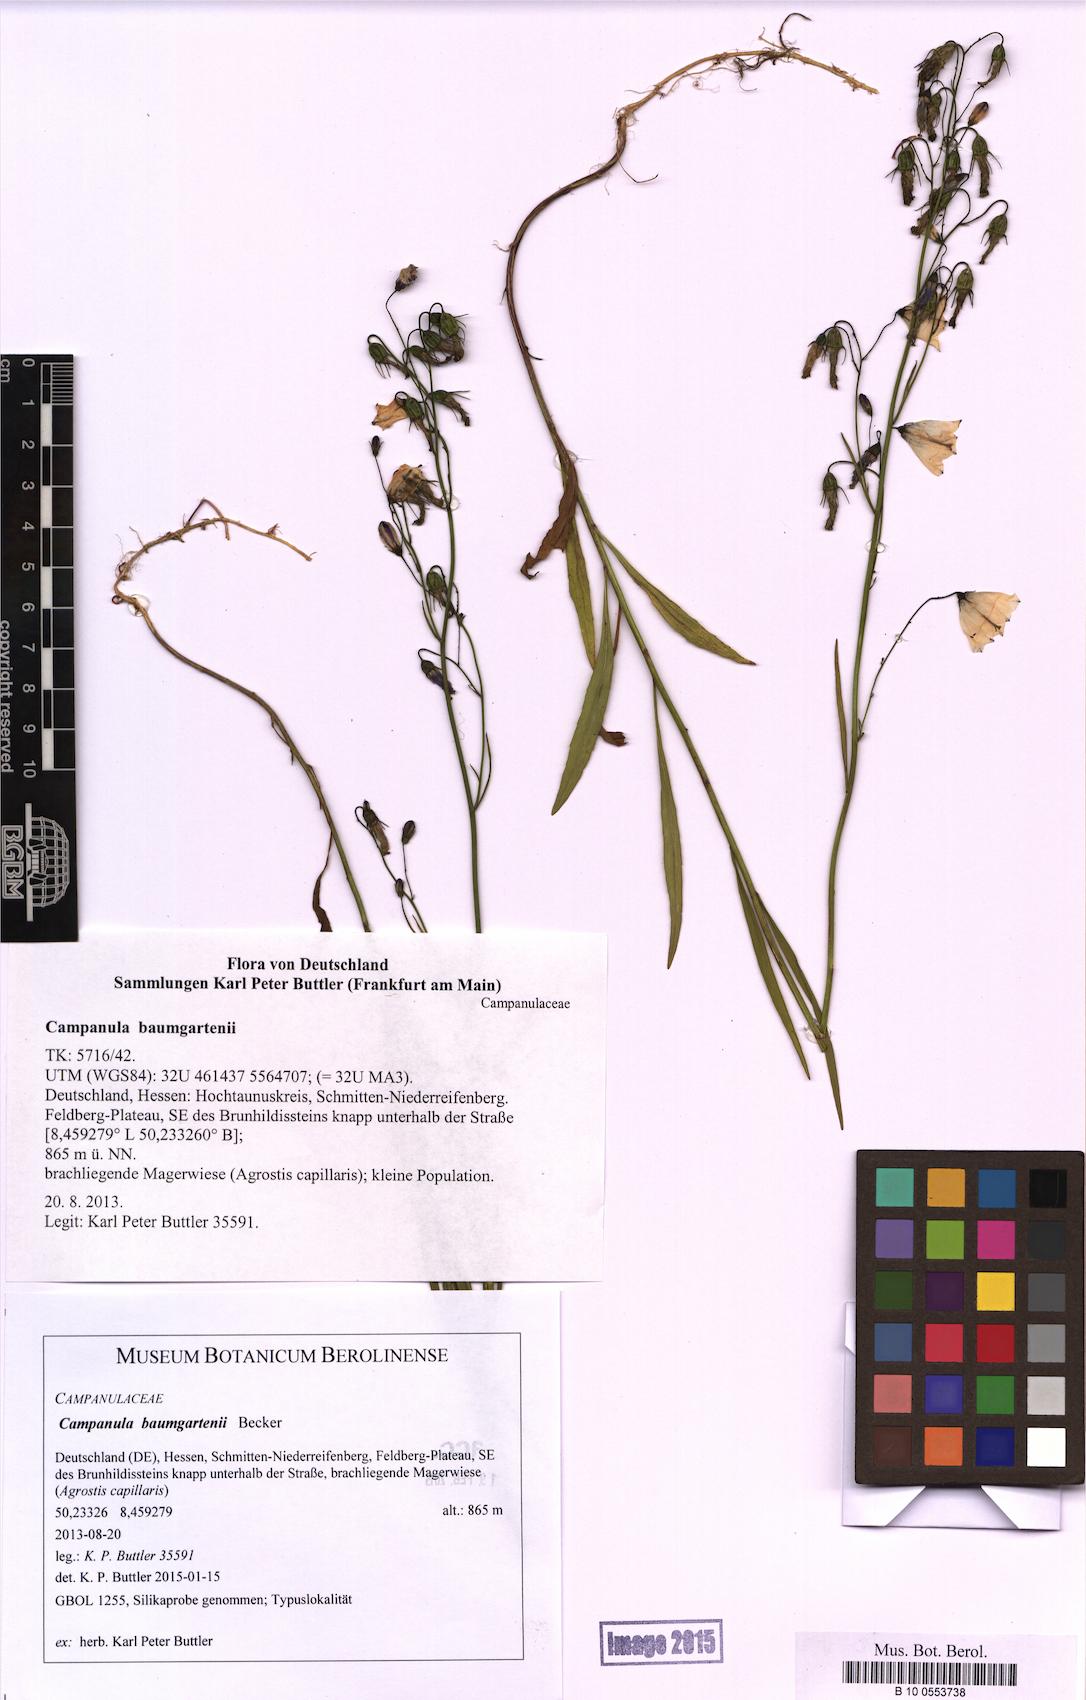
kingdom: Plantae
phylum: Tracheophyta
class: Magnoliopsida
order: Asterales
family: Campanulaceae
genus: Campanula
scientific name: Campanula baumgartenii
